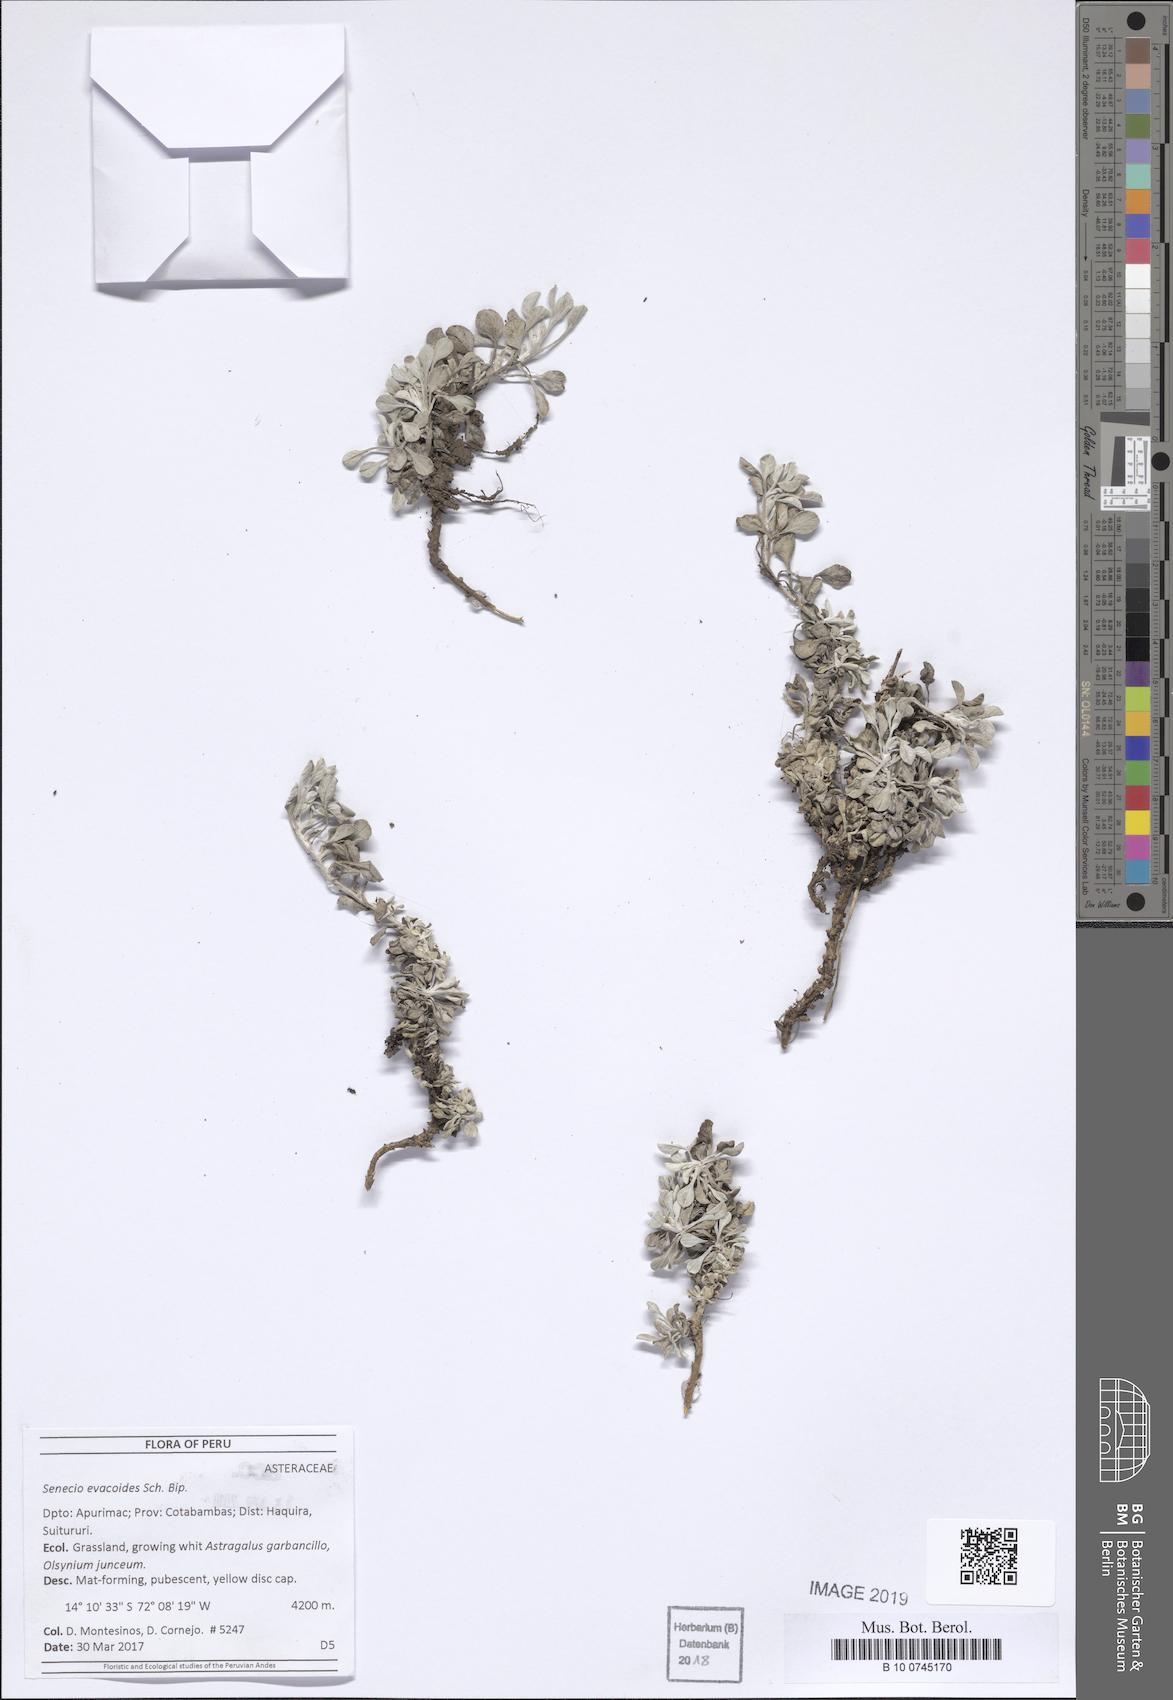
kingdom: Plantae
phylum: Tracheophyta
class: Magnoliopsida
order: Asterales
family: Asteraceae
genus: Senecio
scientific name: Senecio evacoides
